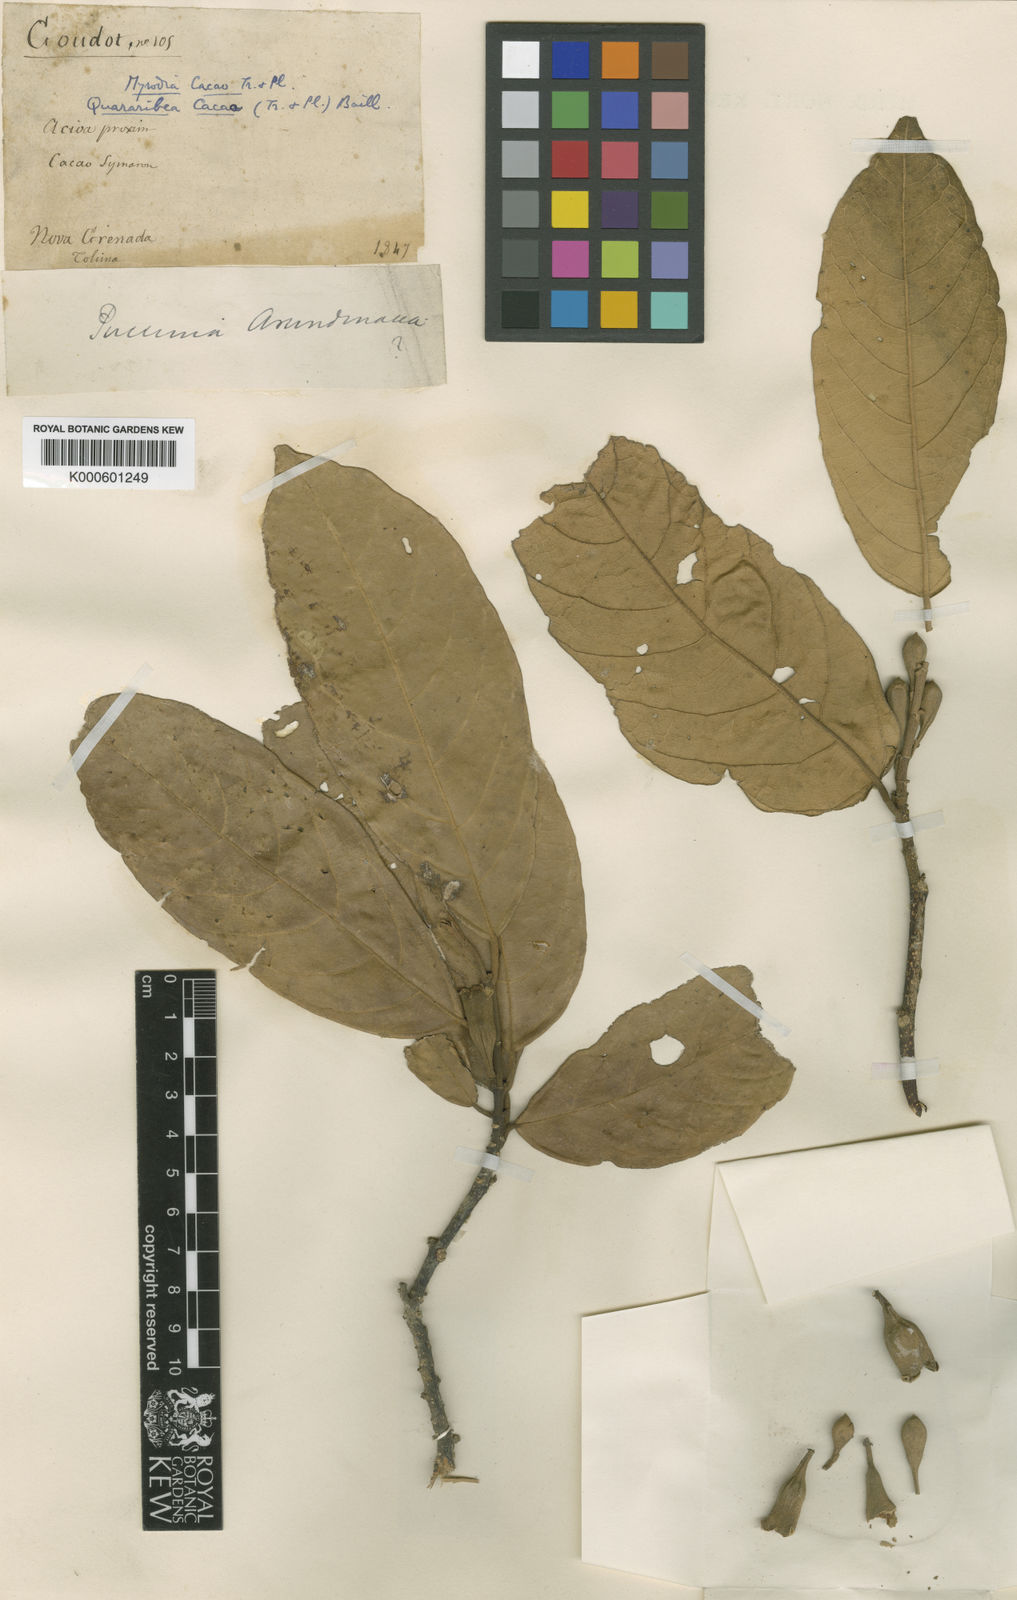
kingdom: Plantae
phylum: Tracheophyta
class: Magnoliopsida
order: Malvales
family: Malvaceae
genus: Quararibea
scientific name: Quararibea cacao
